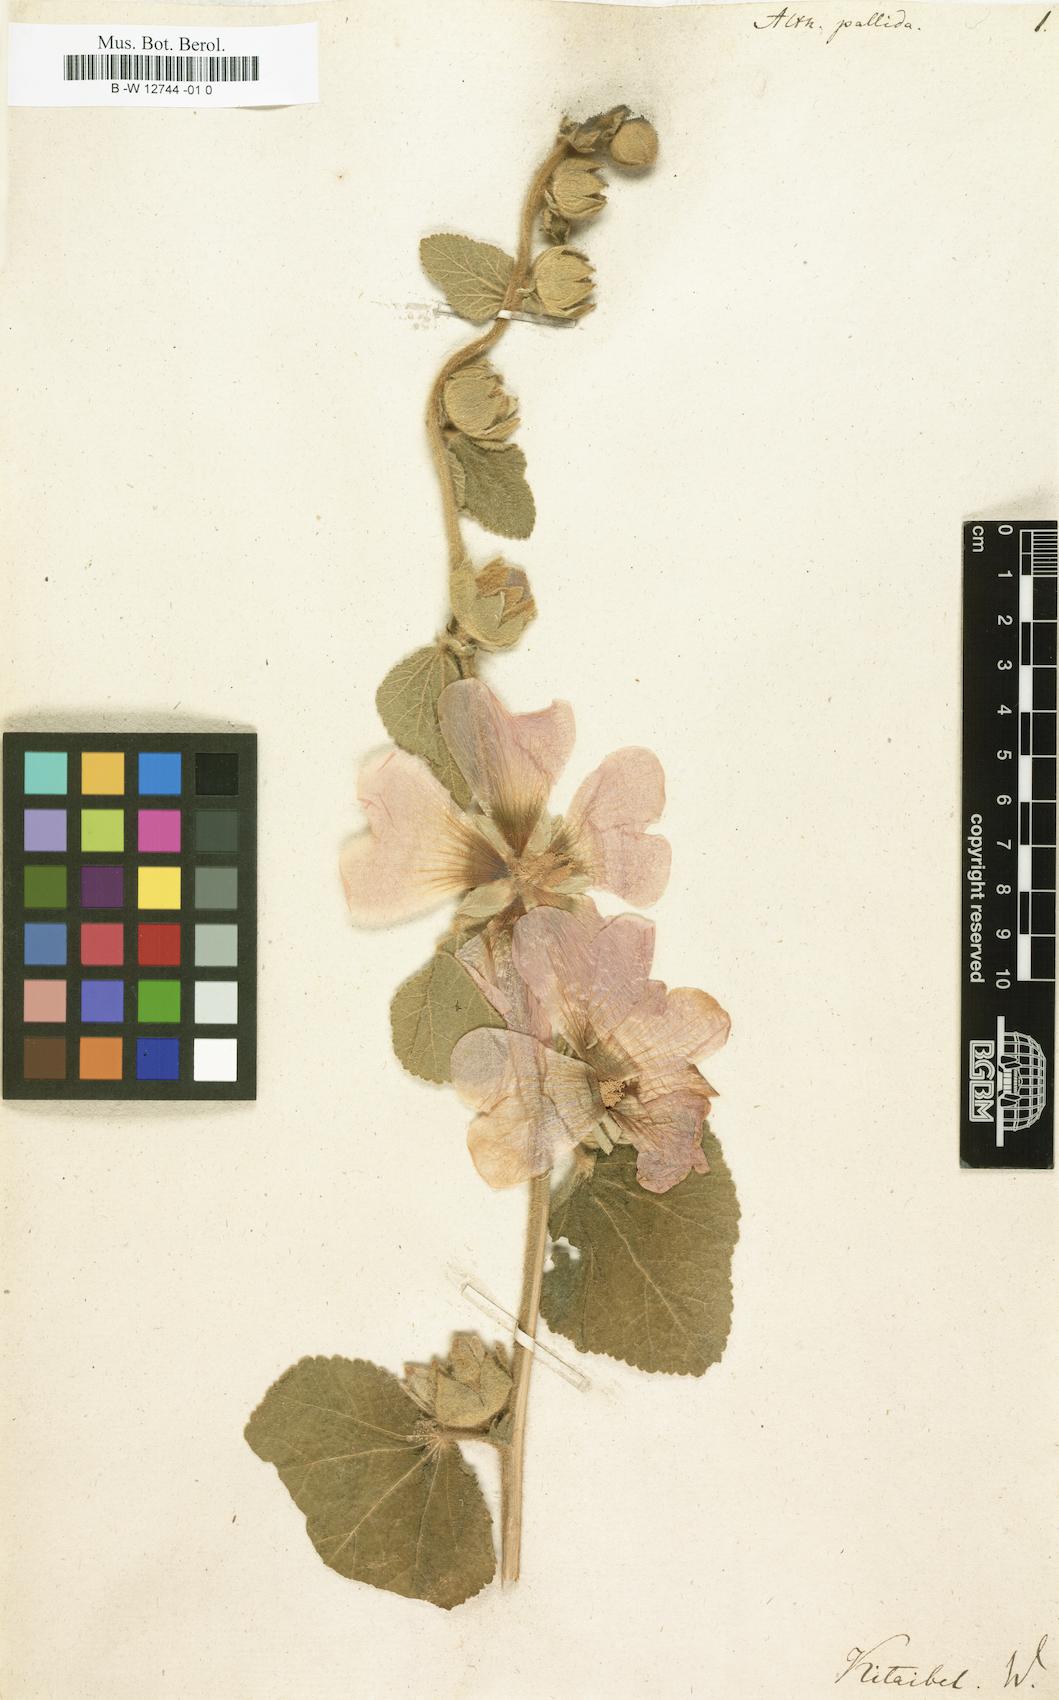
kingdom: Plantae
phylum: Tracheophyta
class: Magnoliopsida
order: Malvales
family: Malvaceae
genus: Alcea
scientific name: Alcea biennis
